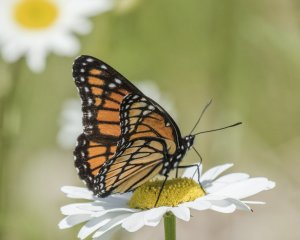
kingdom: Animalia
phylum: Arthropoda
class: Insecta
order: Lepidoptera
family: Nymphalidae
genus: Limenitis
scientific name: Limenitis archippus
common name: Viceroy
